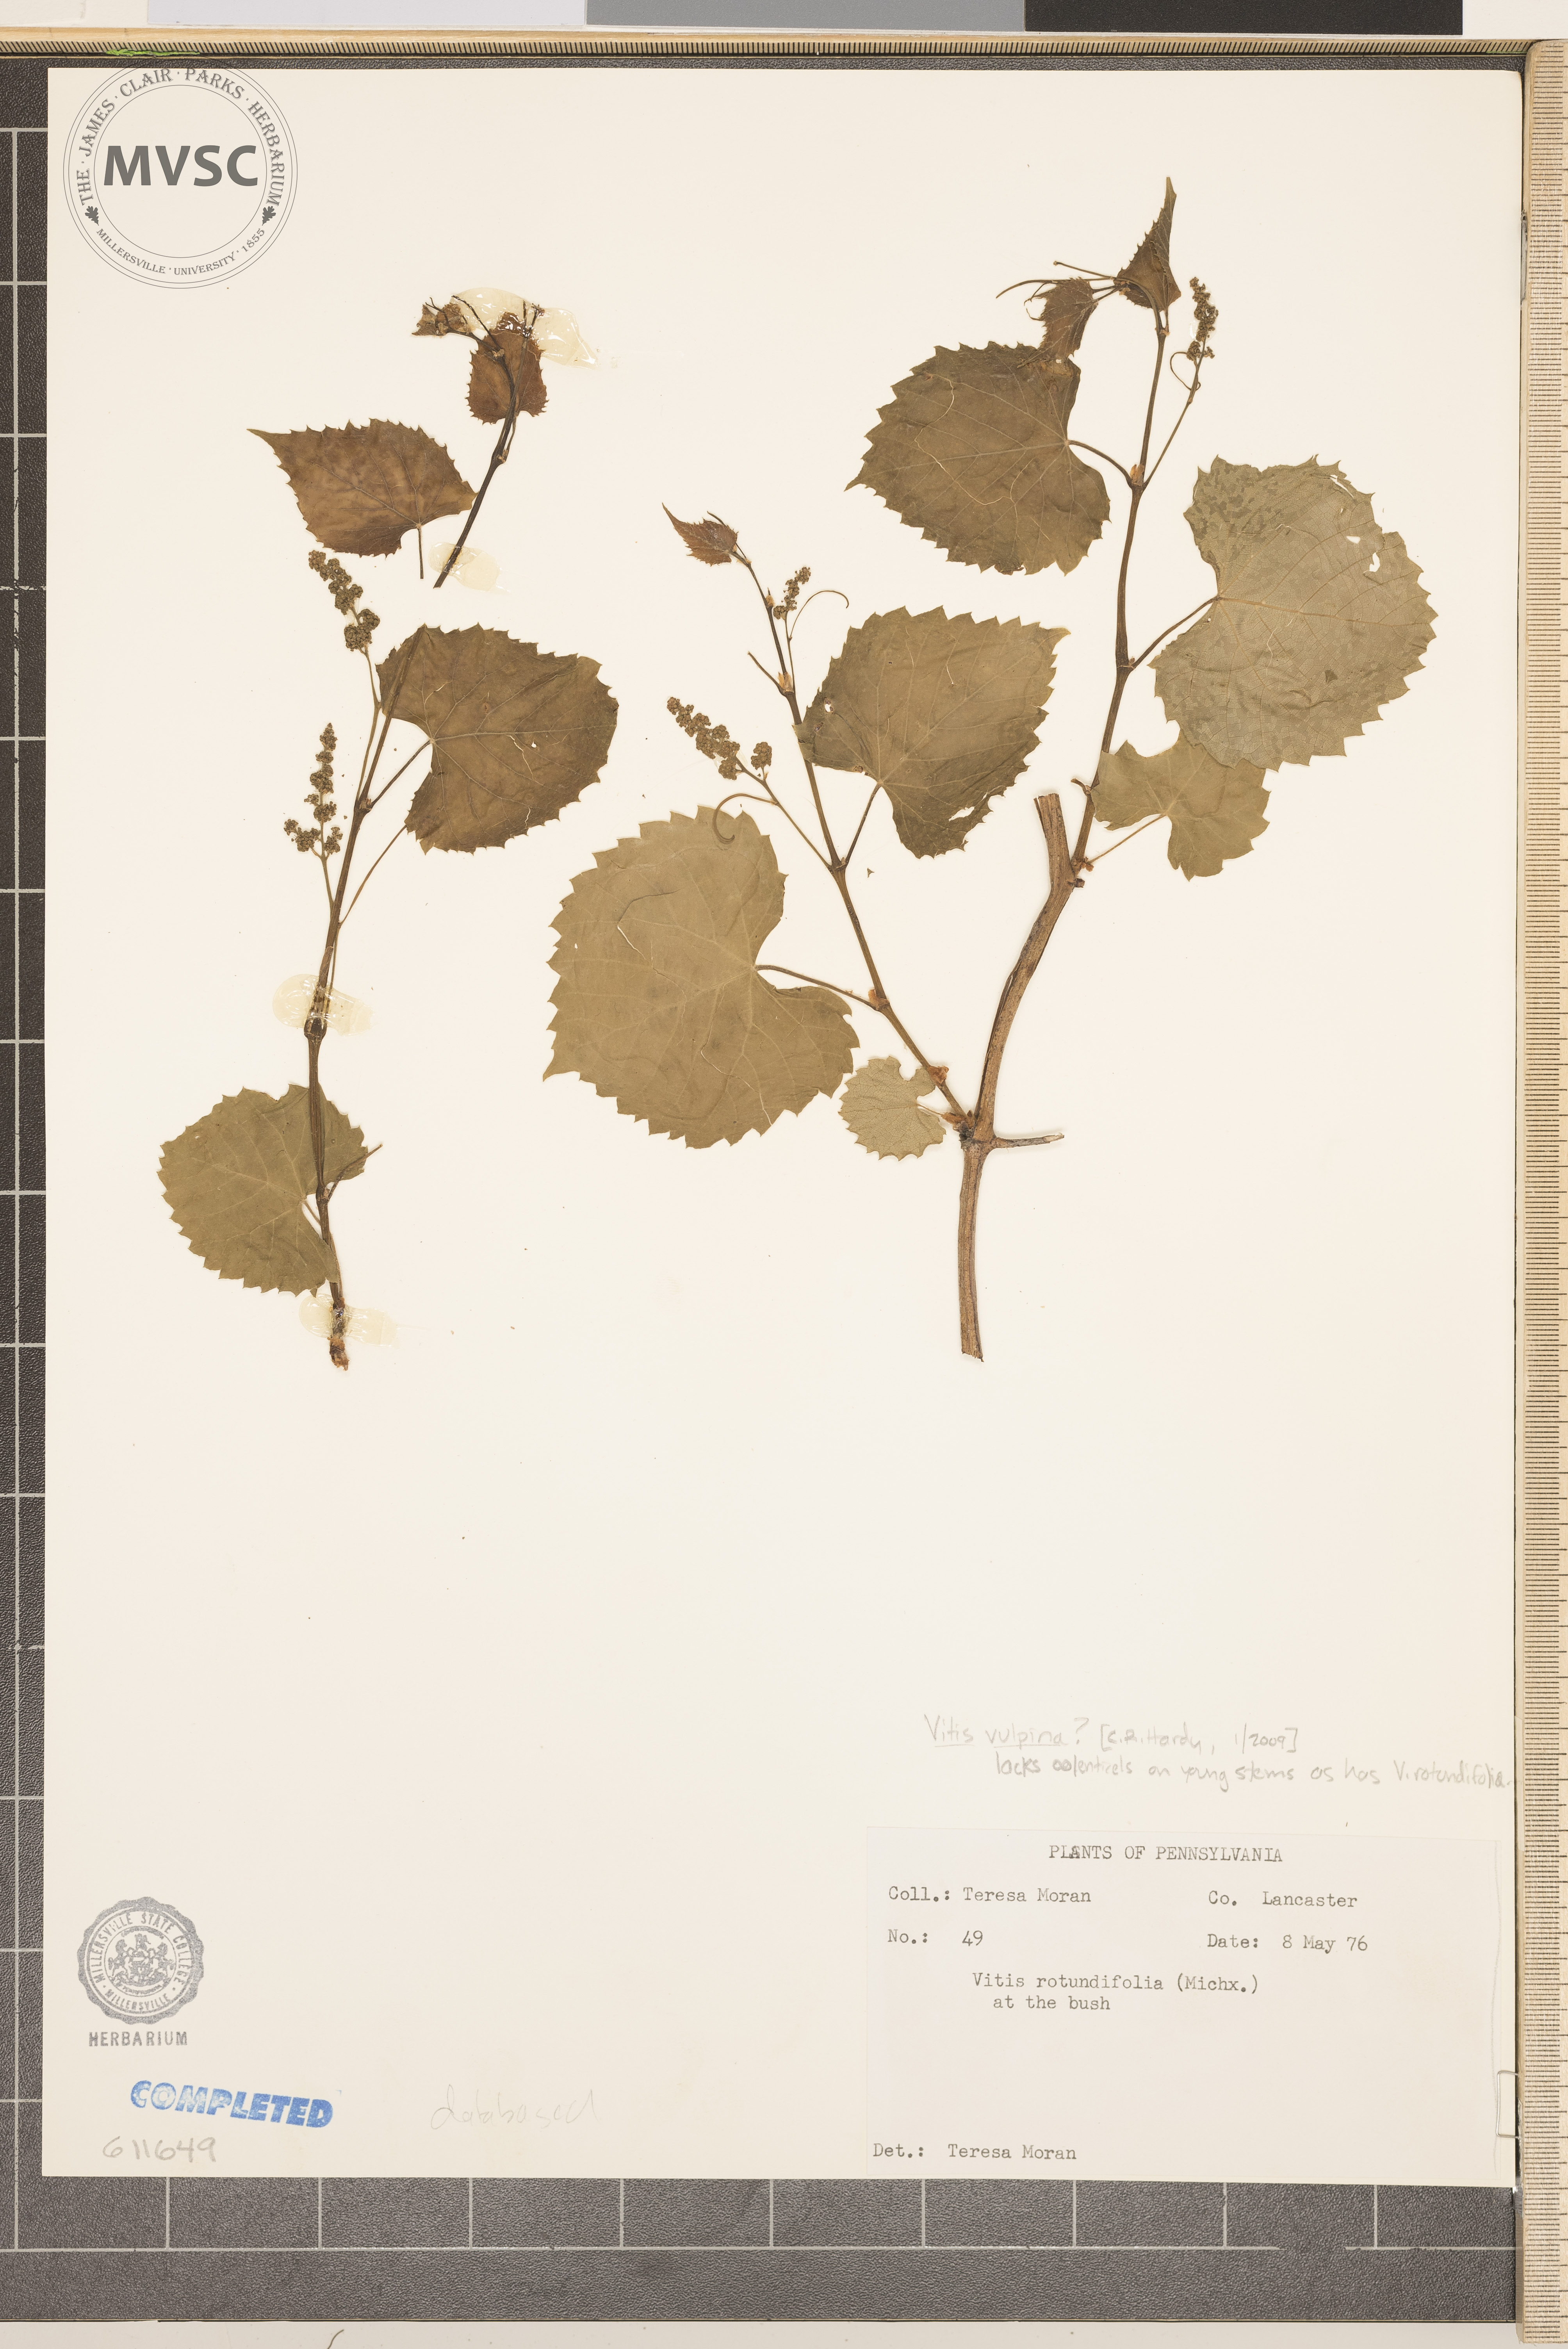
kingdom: Plantae
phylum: Tracheophyta
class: Magnoliopsida
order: Vitales
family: Vitaceae
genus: Vitis
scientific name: Vitis vulpina
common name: Frost Grape
